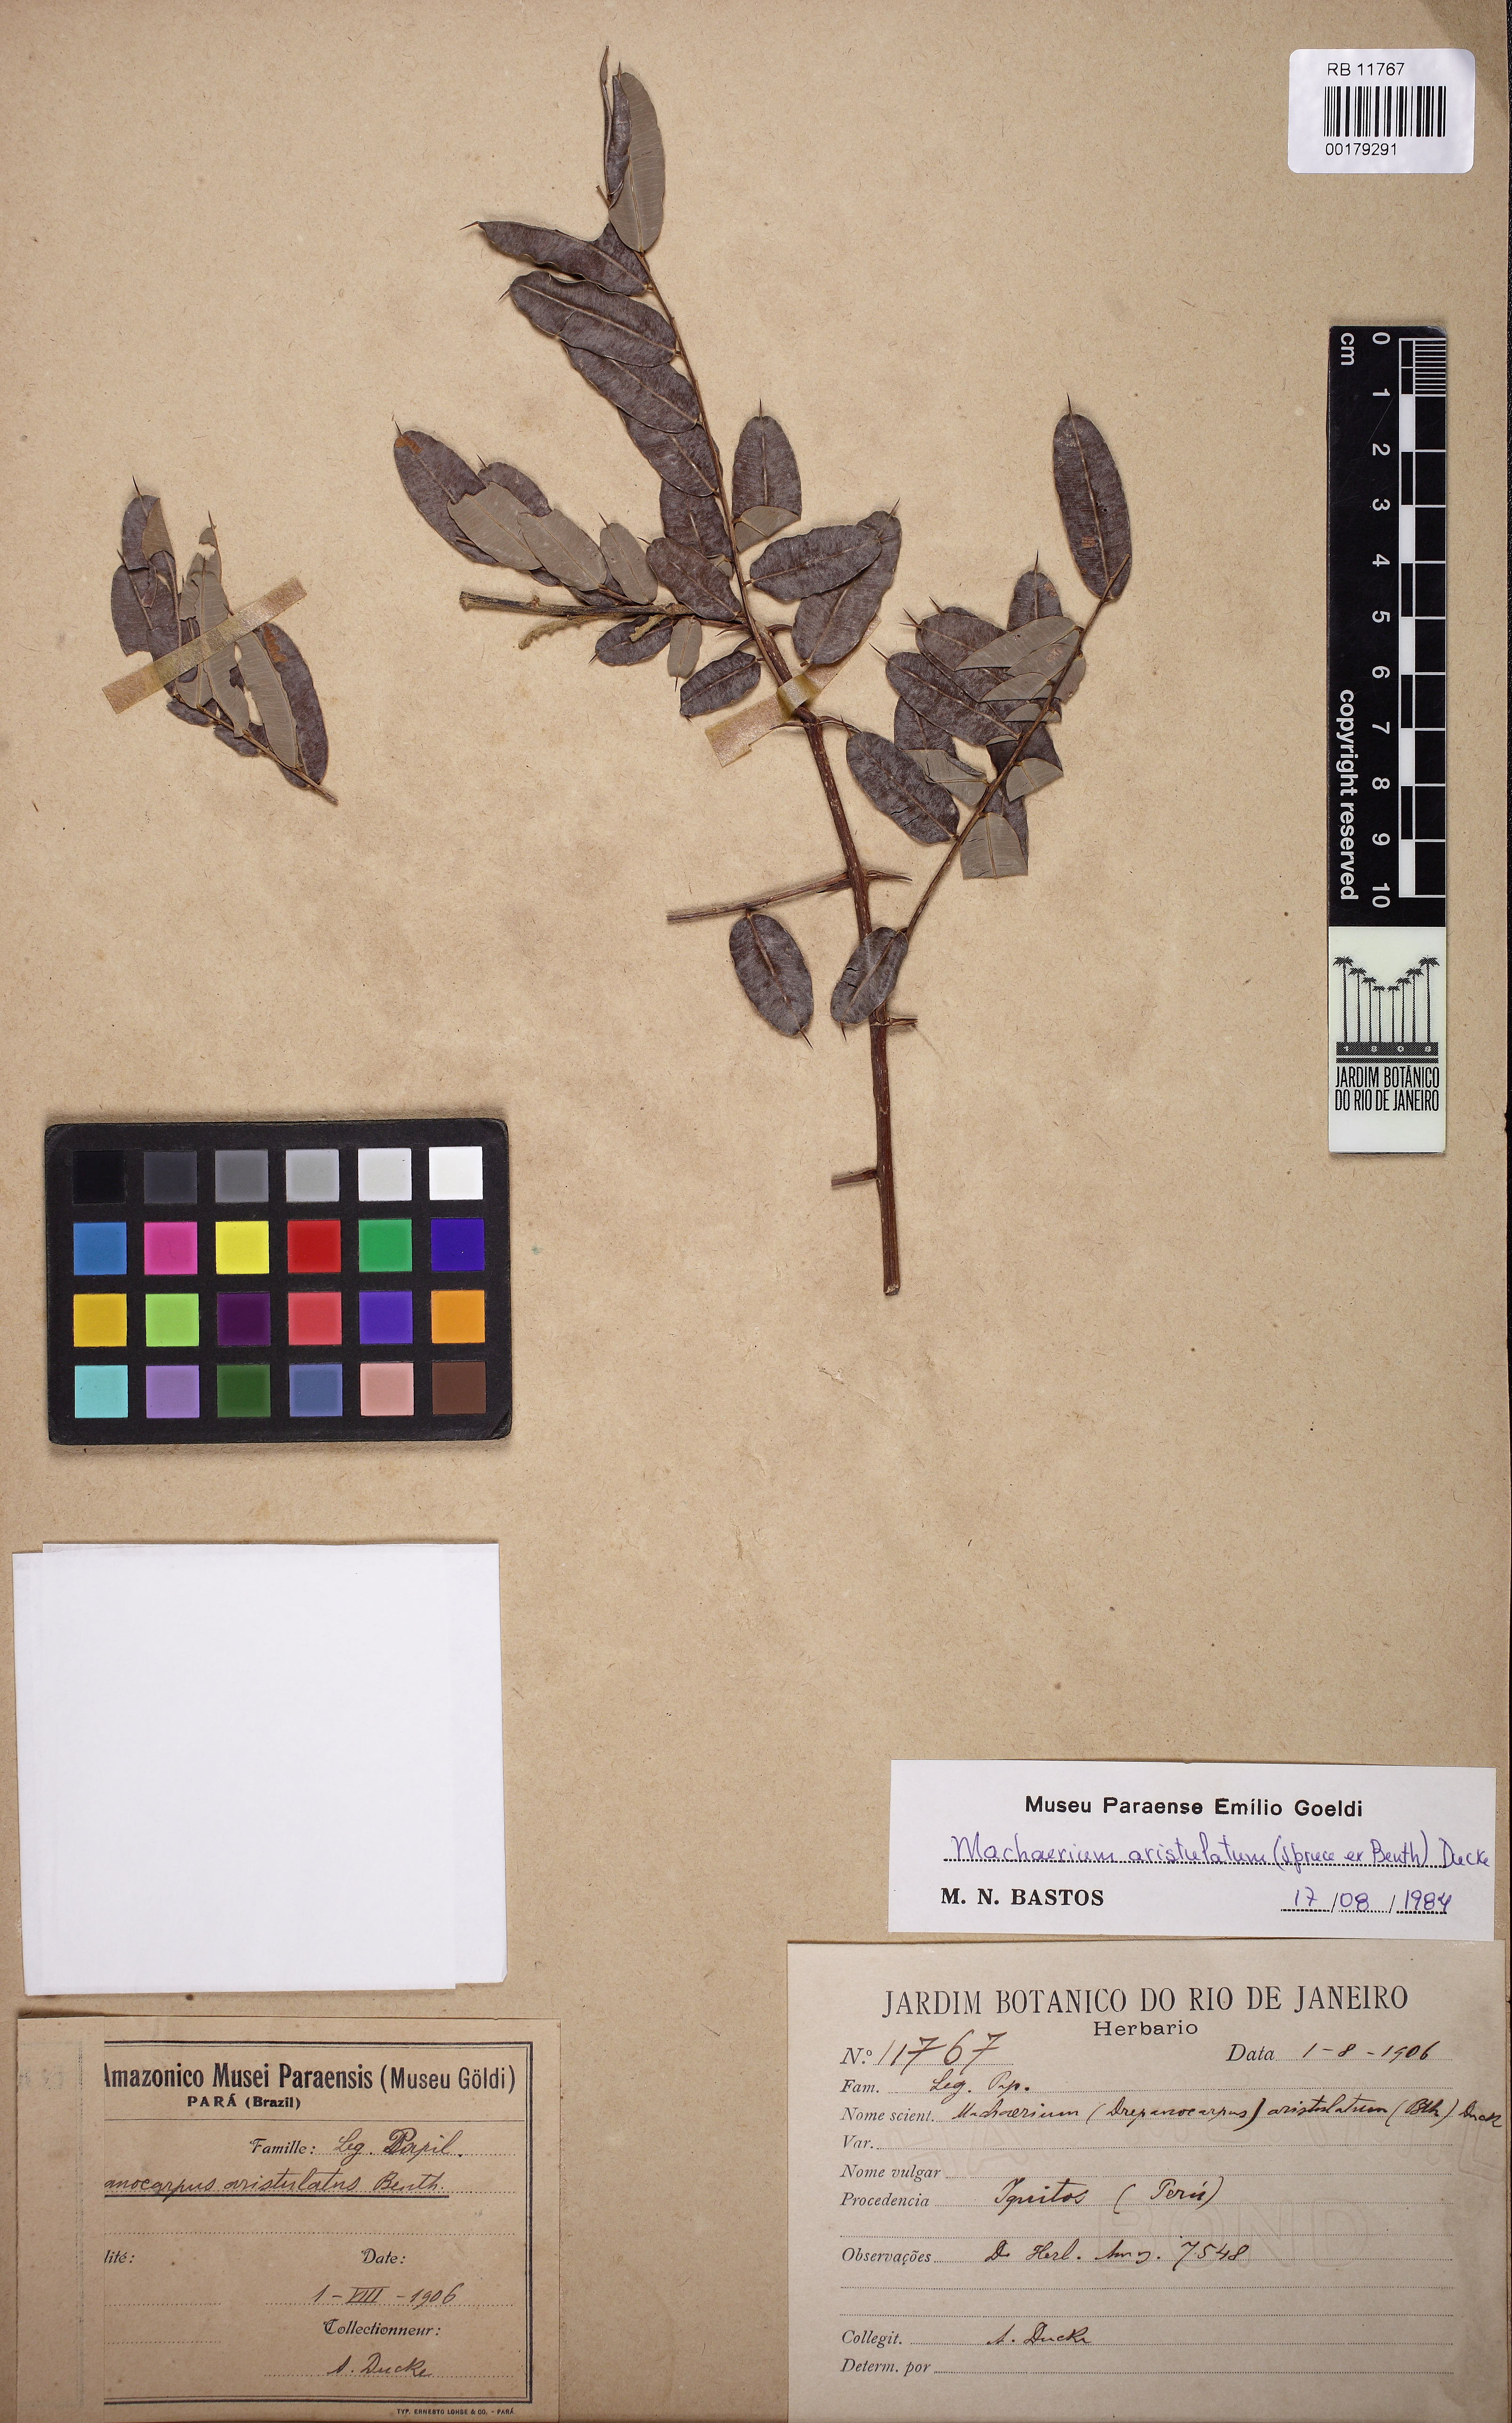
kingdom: Plantae
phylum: Tracheophyta
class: Magnoliopsida
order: Fabales
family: Fabaceae
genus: Machaerium
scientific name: Machaerium aristulatum
